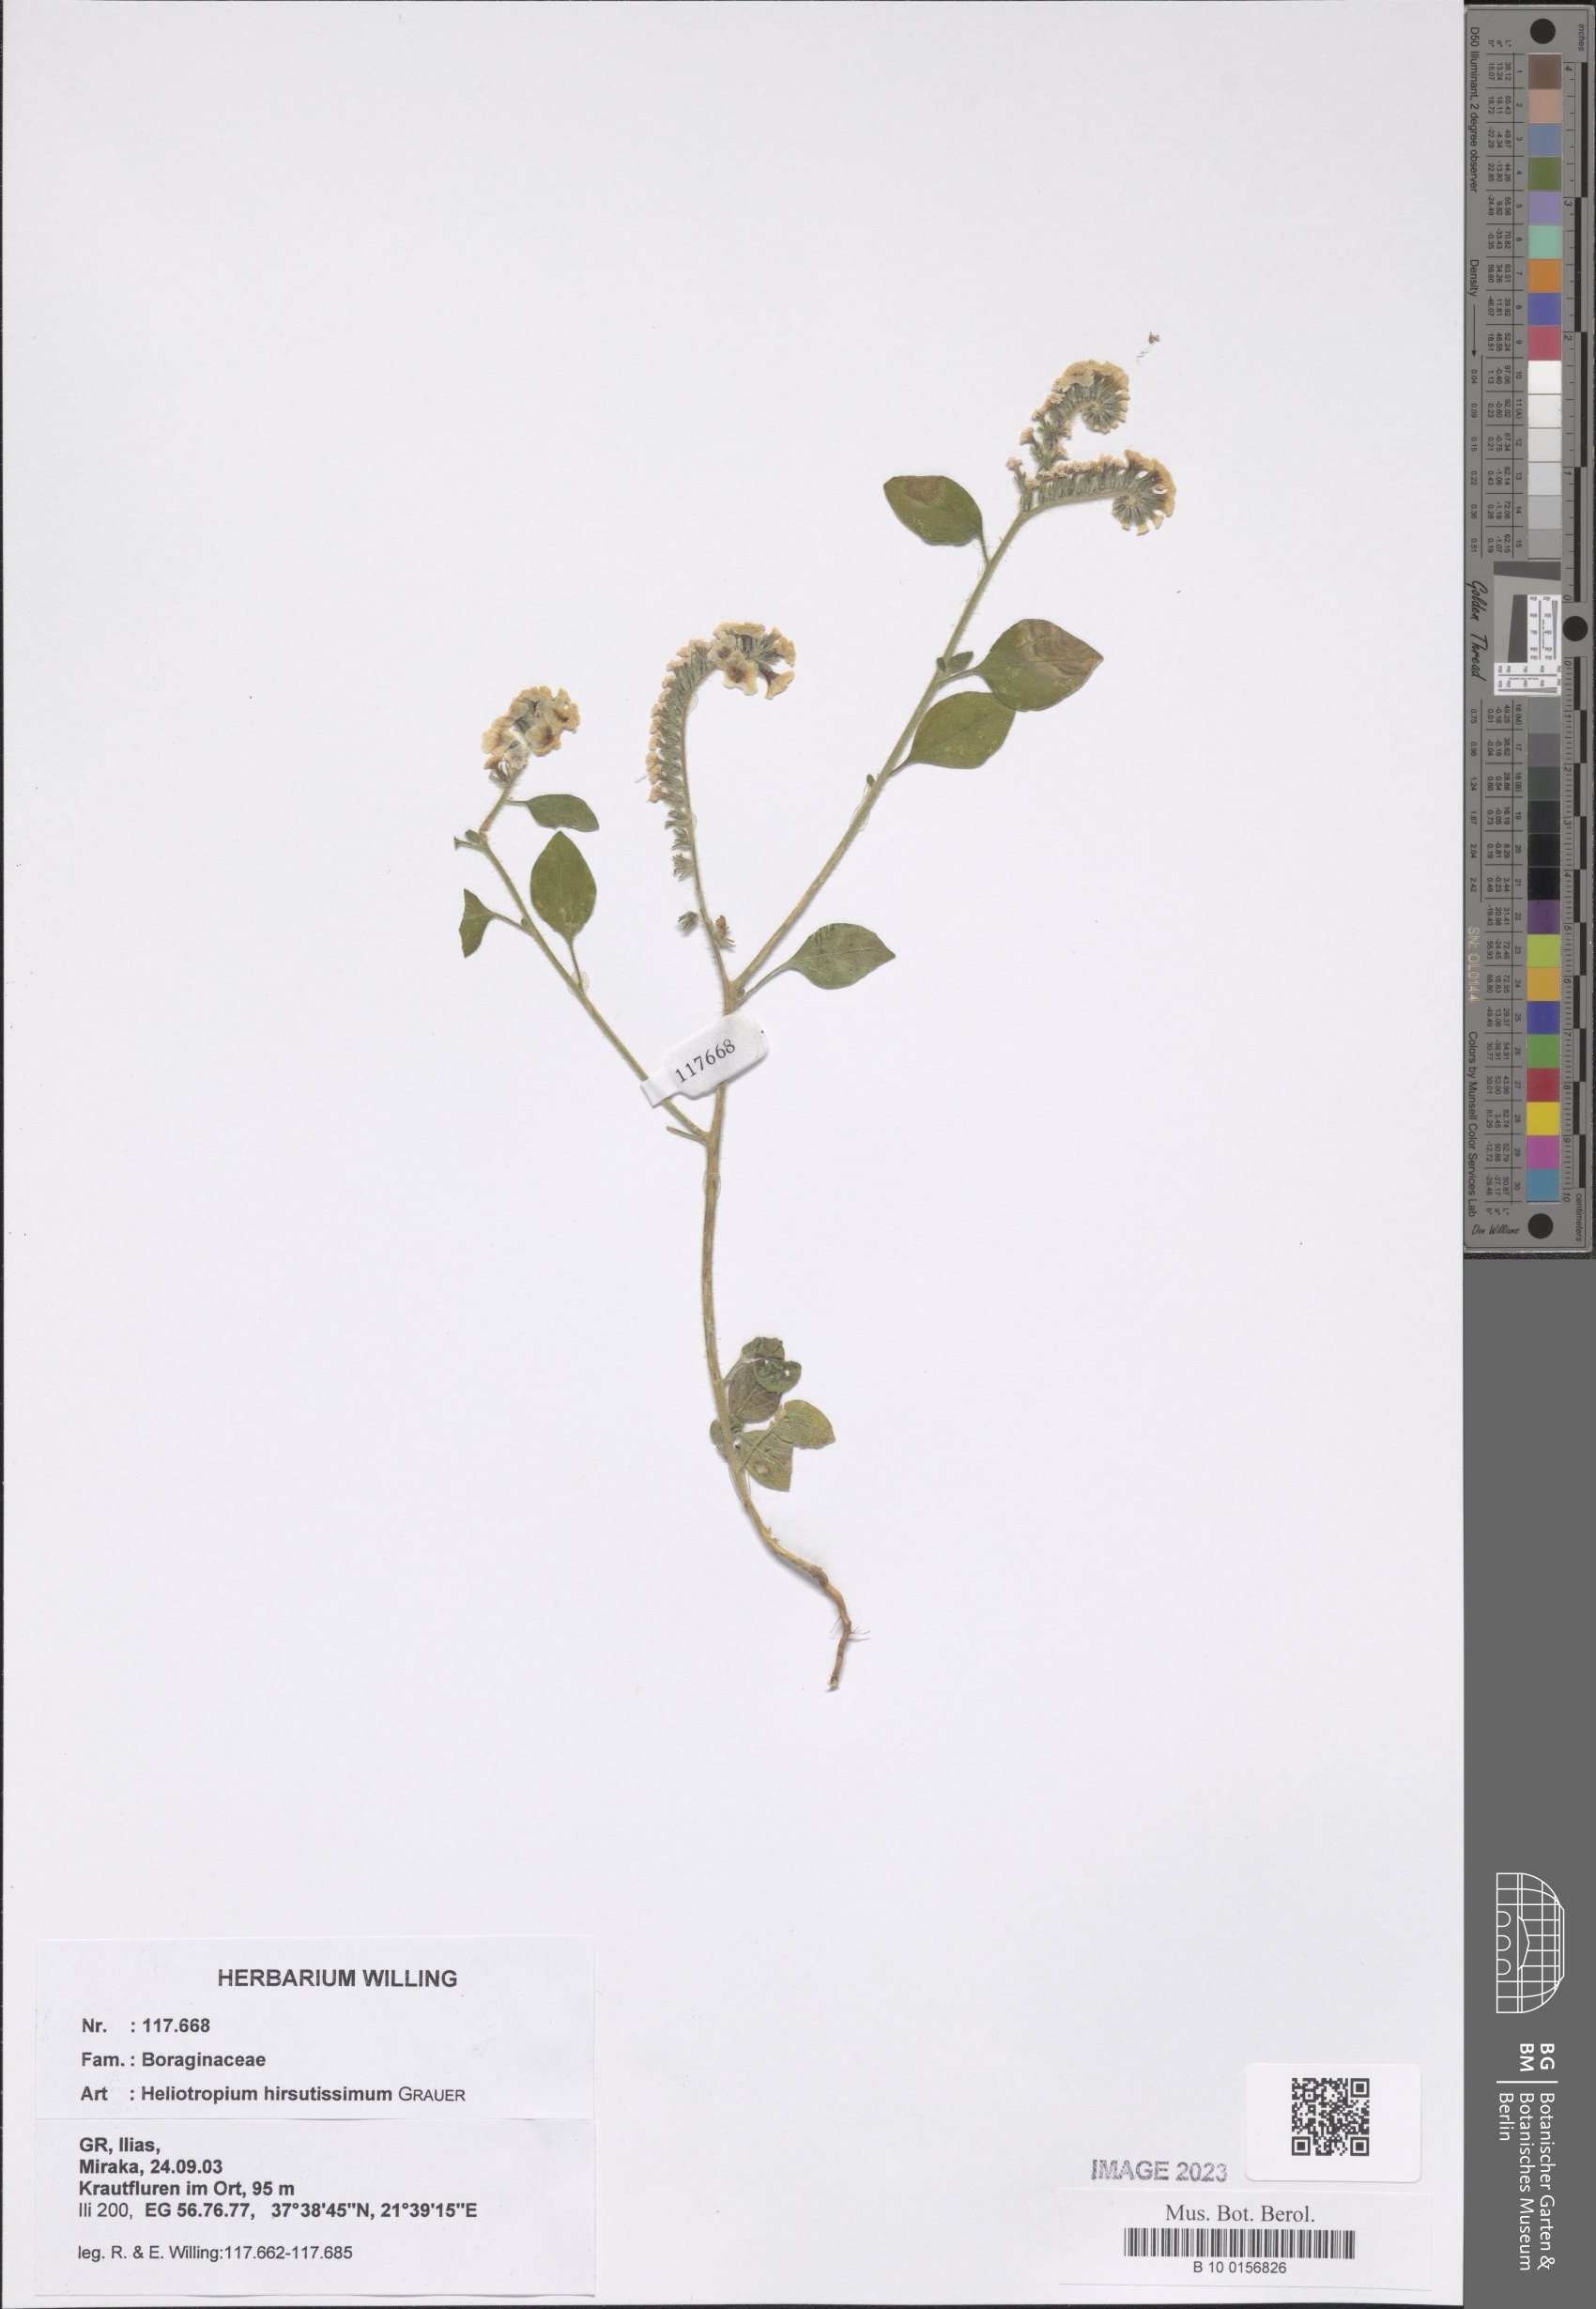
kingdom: Plantae
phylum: Tracheophyta
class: Magnoliopsida
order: Boraginales
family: Heliotropiaceae
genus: Heliotropium
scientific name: Heliotropium hirsutissimum
